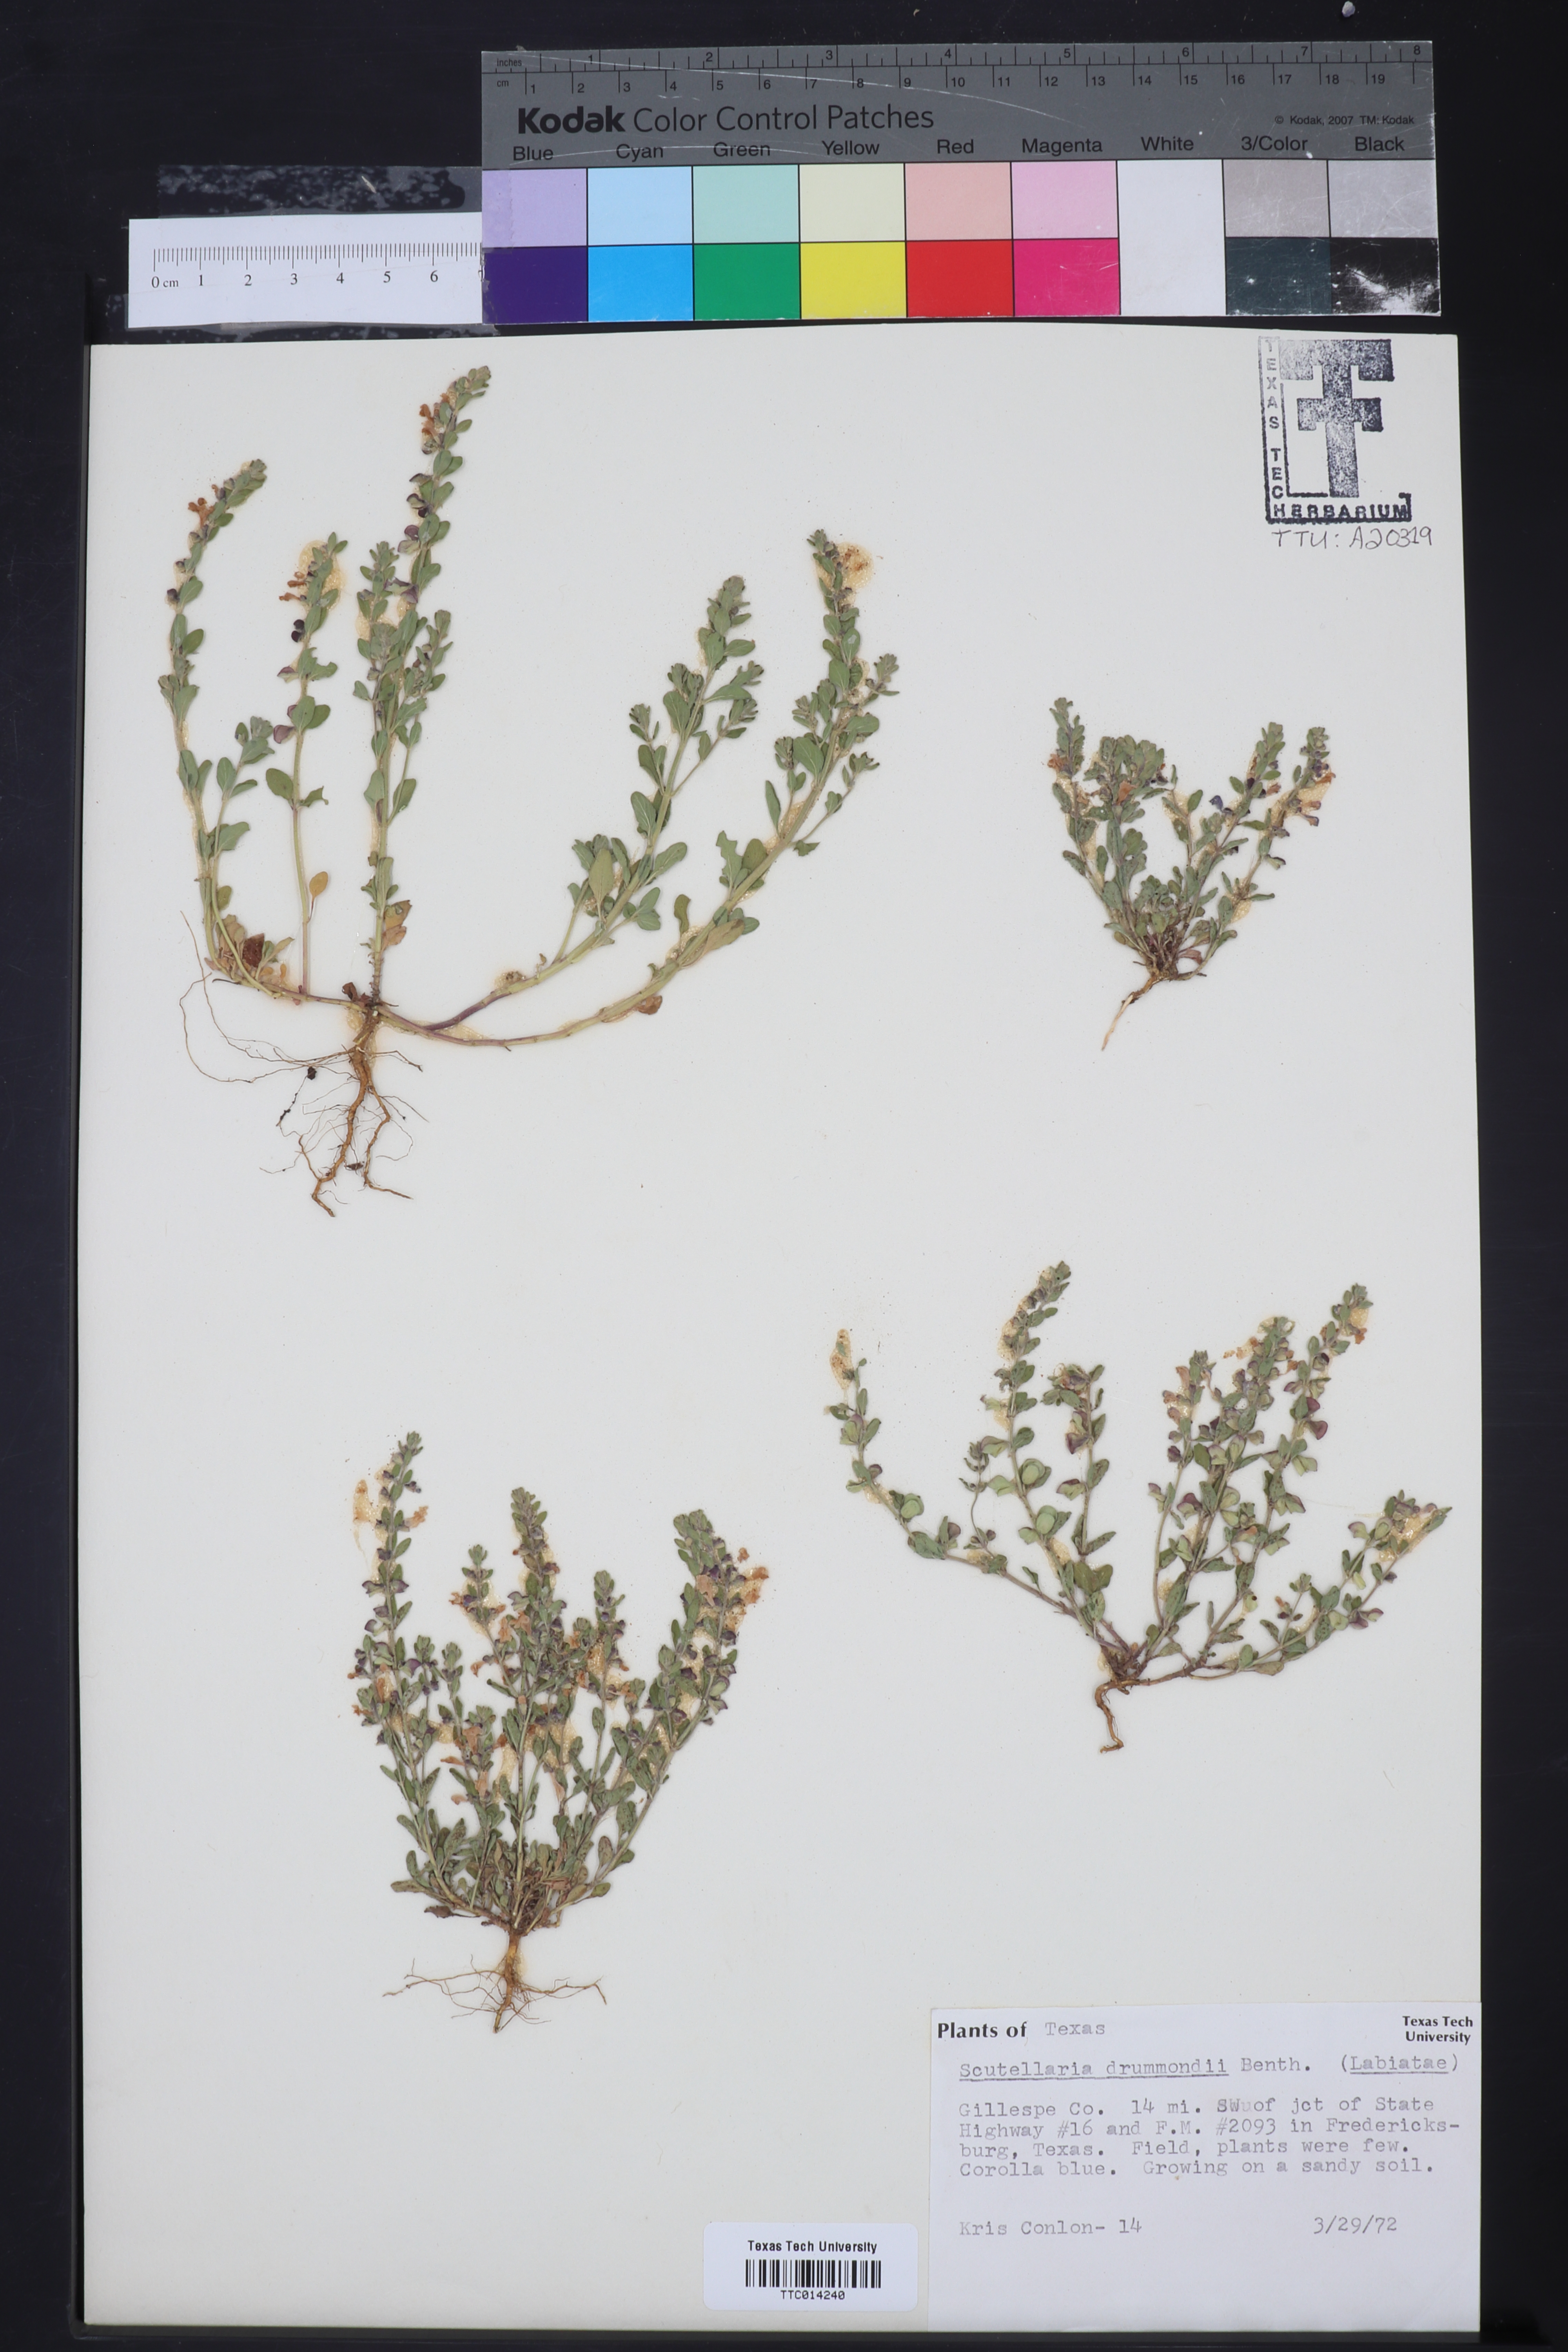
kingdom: Plantae
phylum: Tracheophyta
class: Magnoliopsida
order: Lamiales
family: Lamiaceae
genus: Scutellaria
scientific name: Scutellaria drummondii
